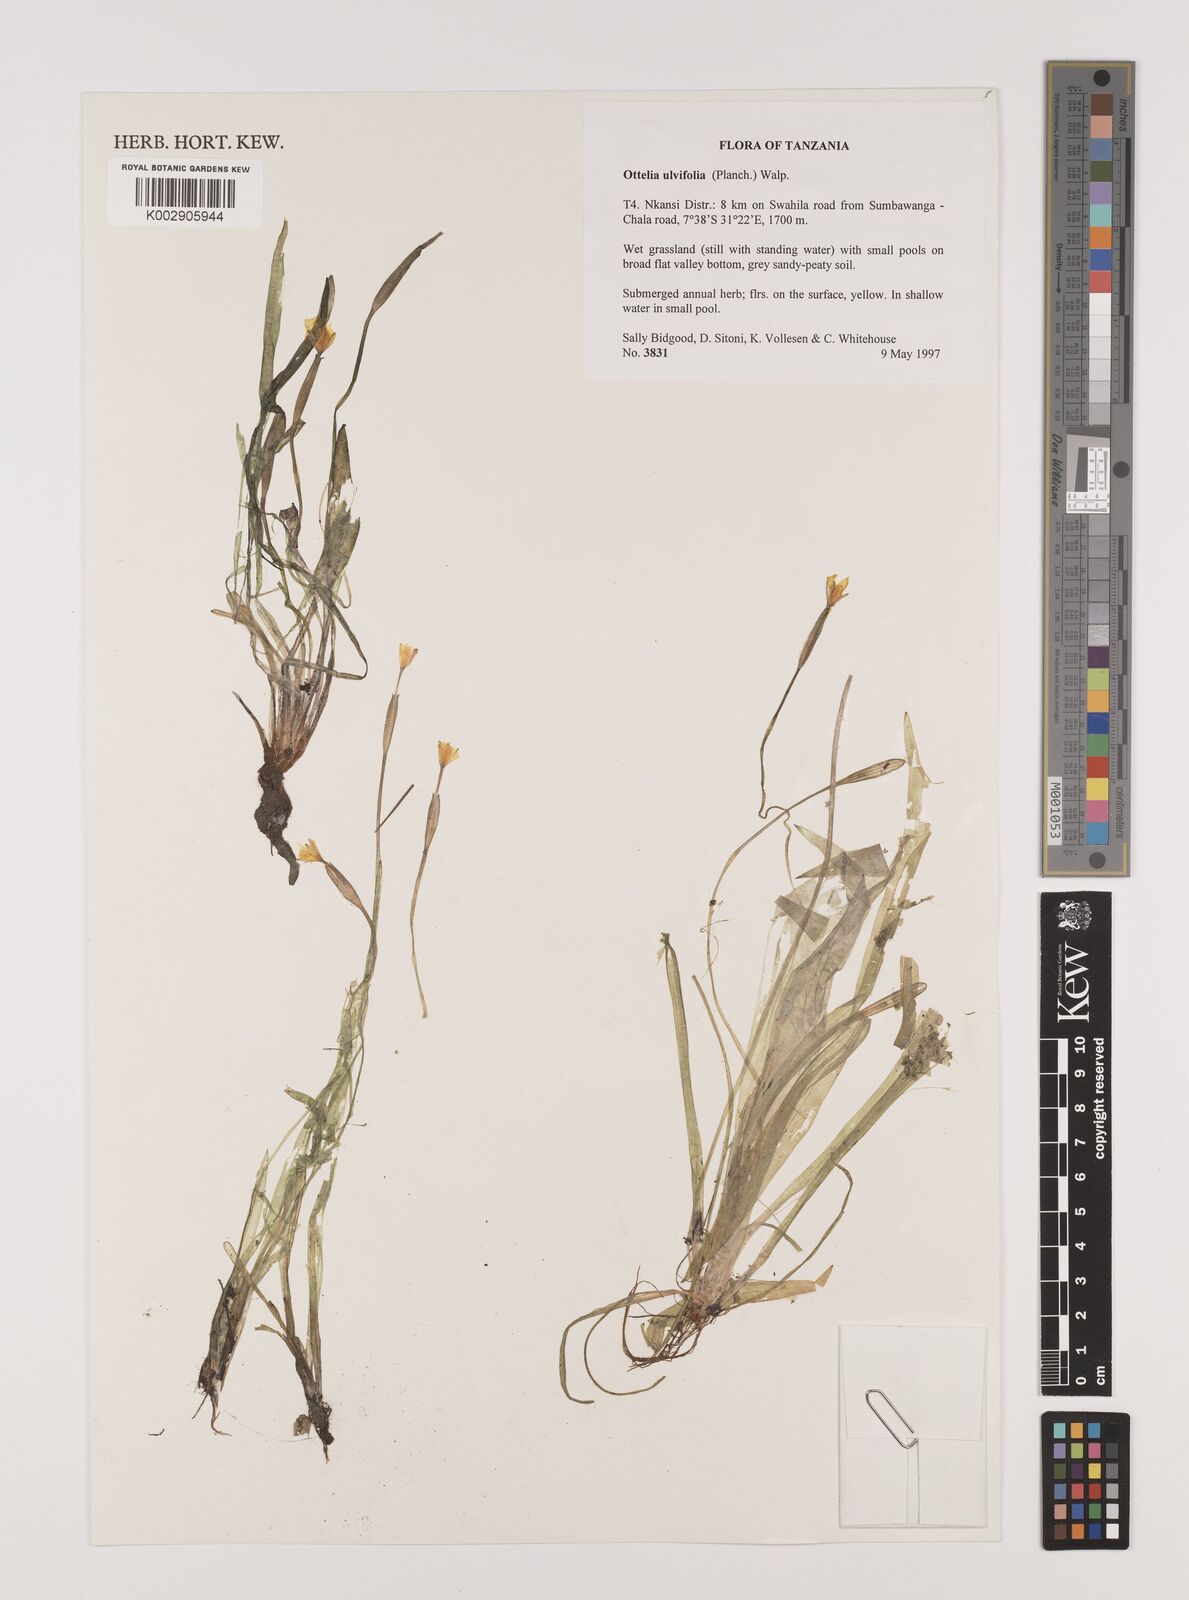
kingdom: Plantae
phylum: Tracheophyta
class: Liliopsida
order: Alismatales
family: Hydrocharitaceae
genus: Ottelia
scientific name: Ottelia ulvifolia
